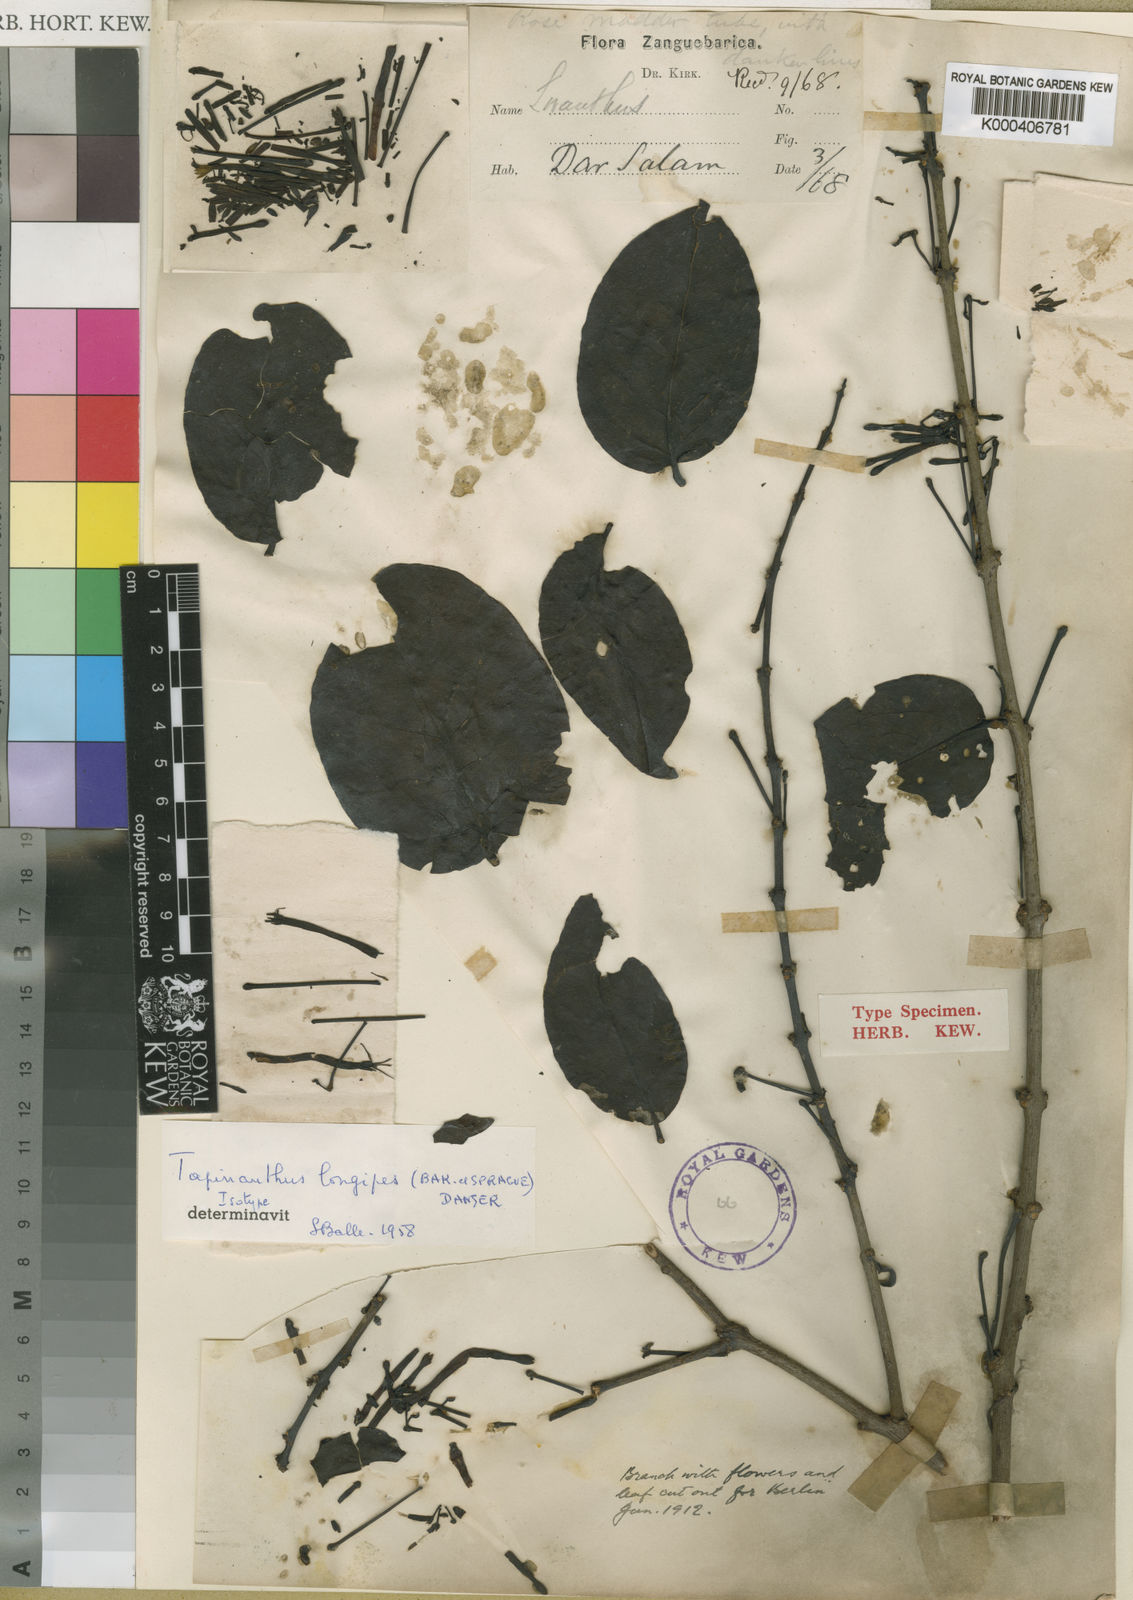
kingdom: Plantae
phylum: Tracheophyta
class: Magnoliopsida
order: Santalales
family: Loranthaceae
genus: Agelanthus
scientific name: Agelanthus longipes
